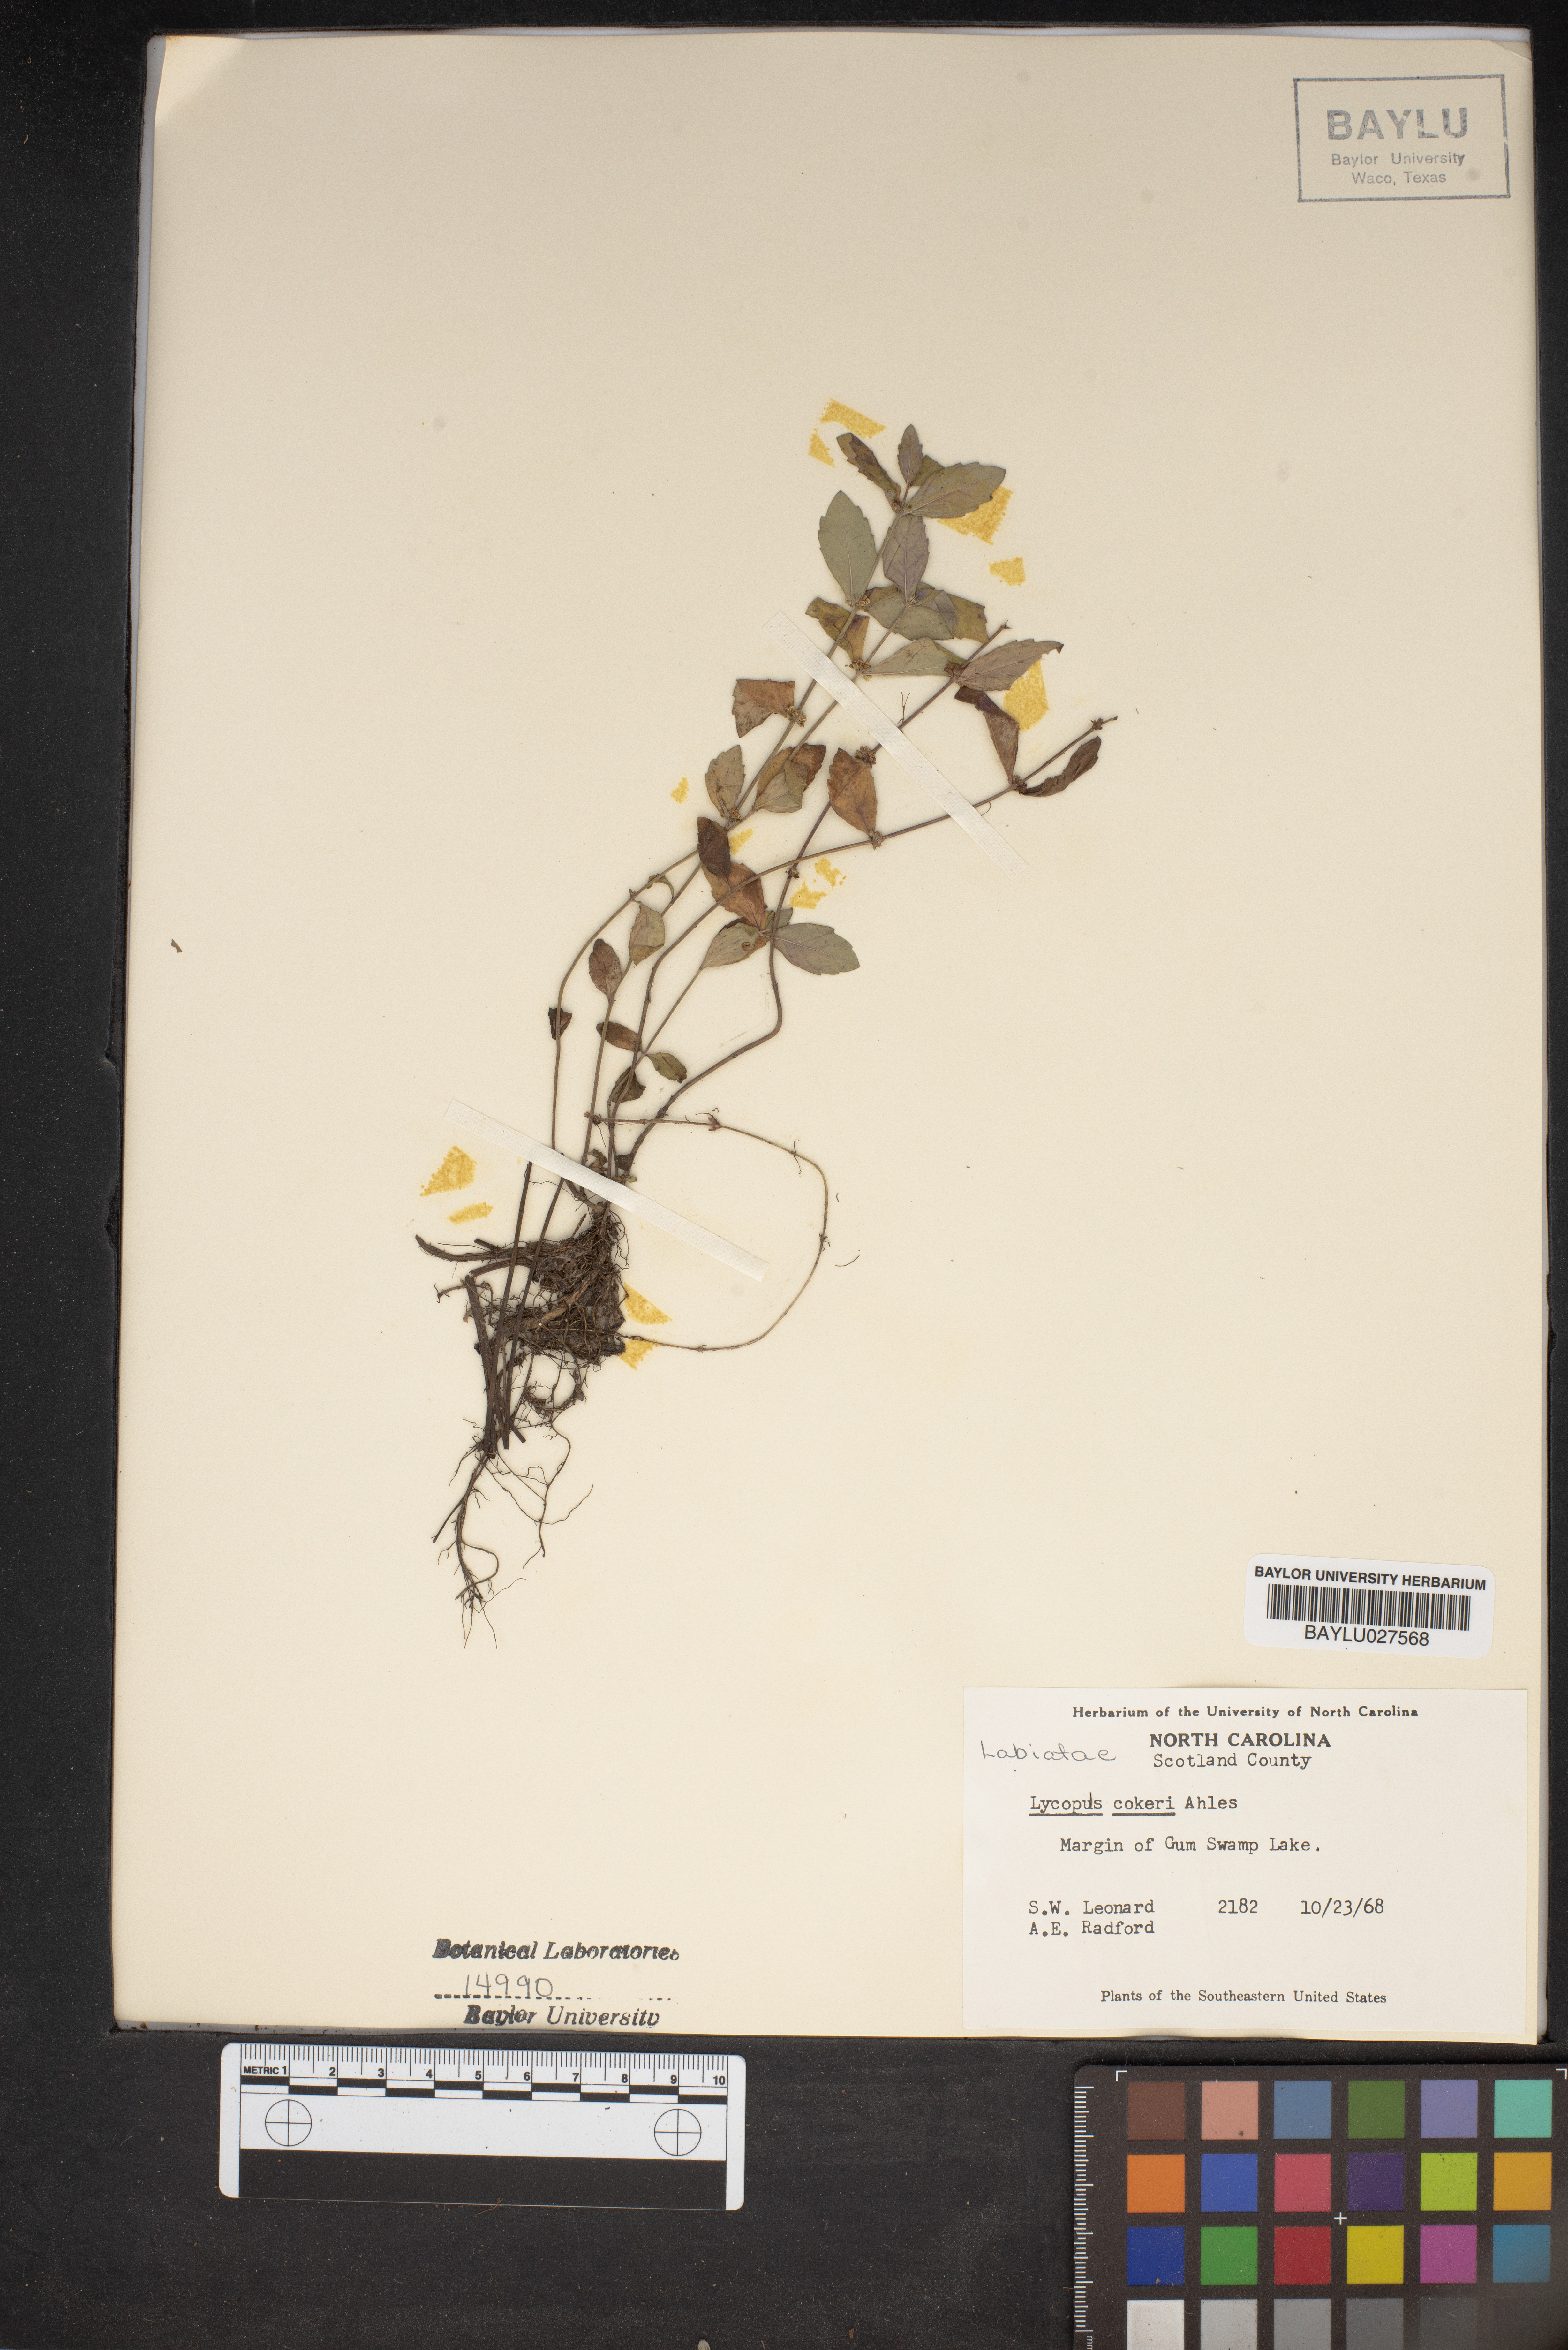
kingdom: Plantae
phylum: Tracheophyta
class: Magnoliopsida
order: Lamiales
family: Lamiaceae
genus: Lycopus
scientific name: Lycopus cokeri
